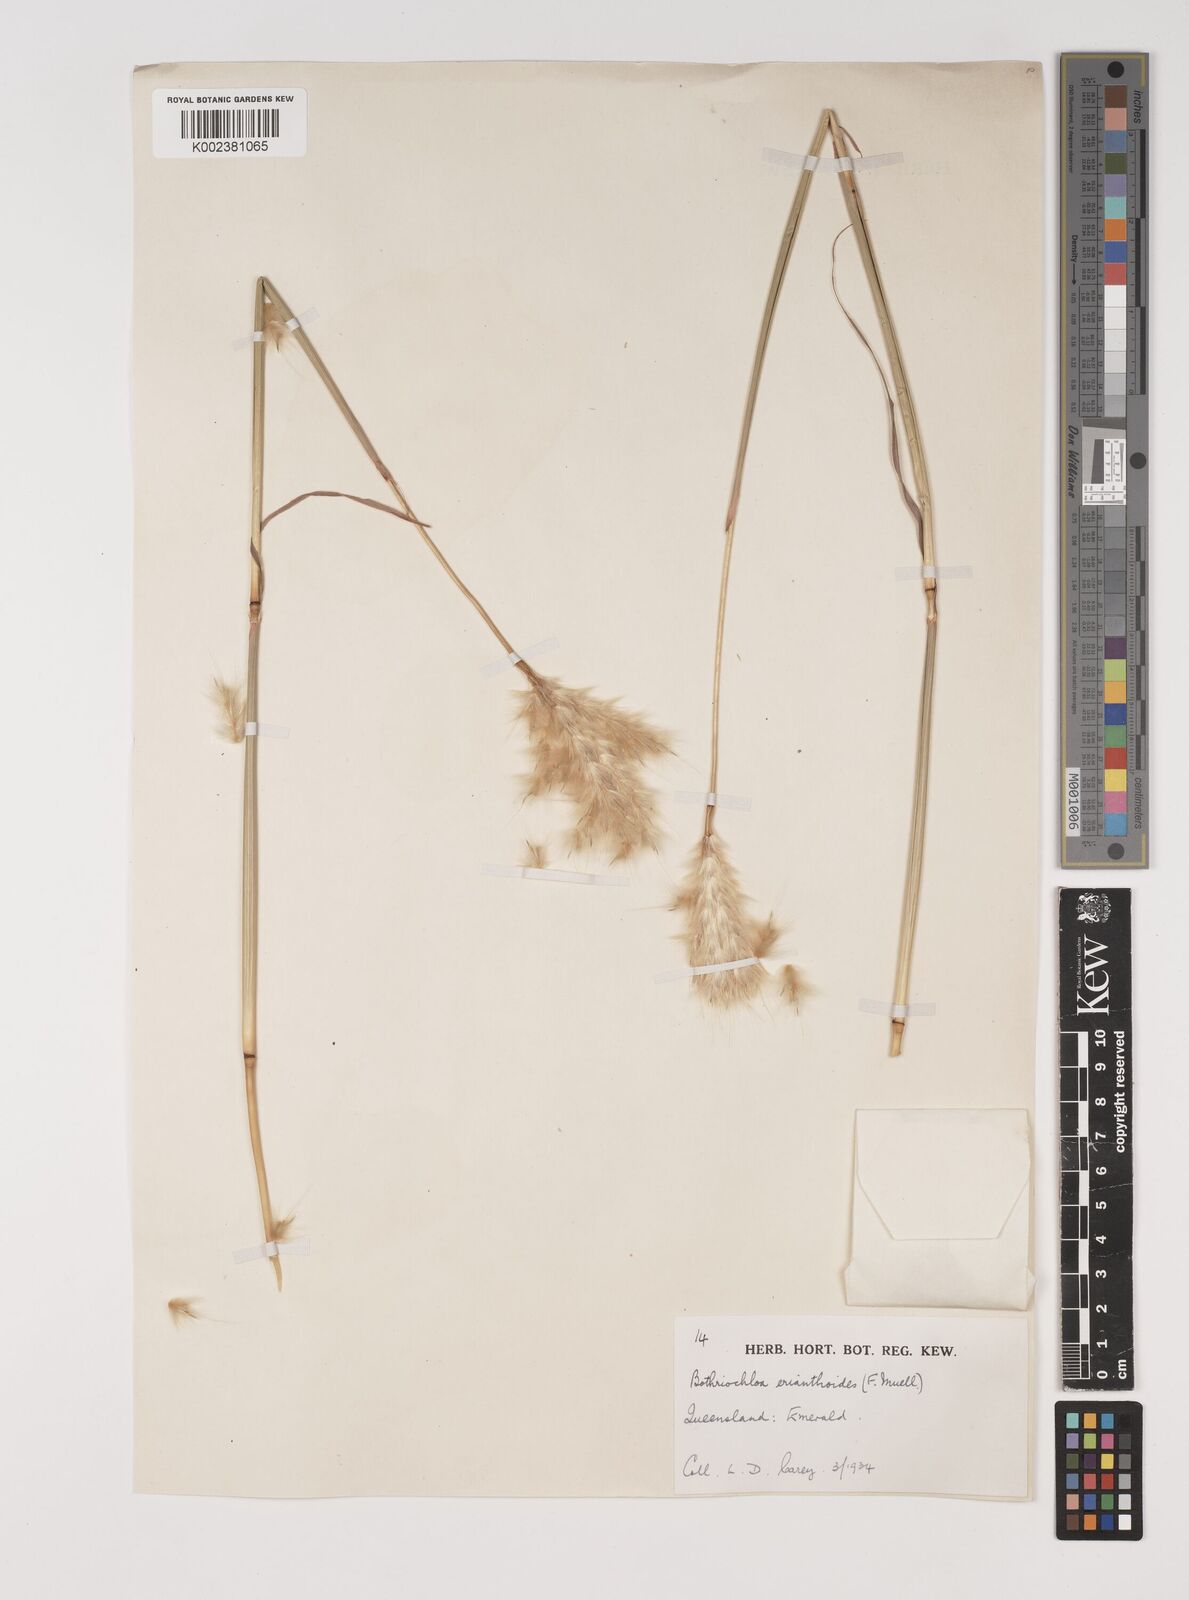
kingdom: Plantae
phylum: Tracheophyta
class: Liliopsida
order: Poales
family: Poaceae
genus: Bothriochloa
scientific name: Bothriochloa erianthoides
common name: Satin-top grass
